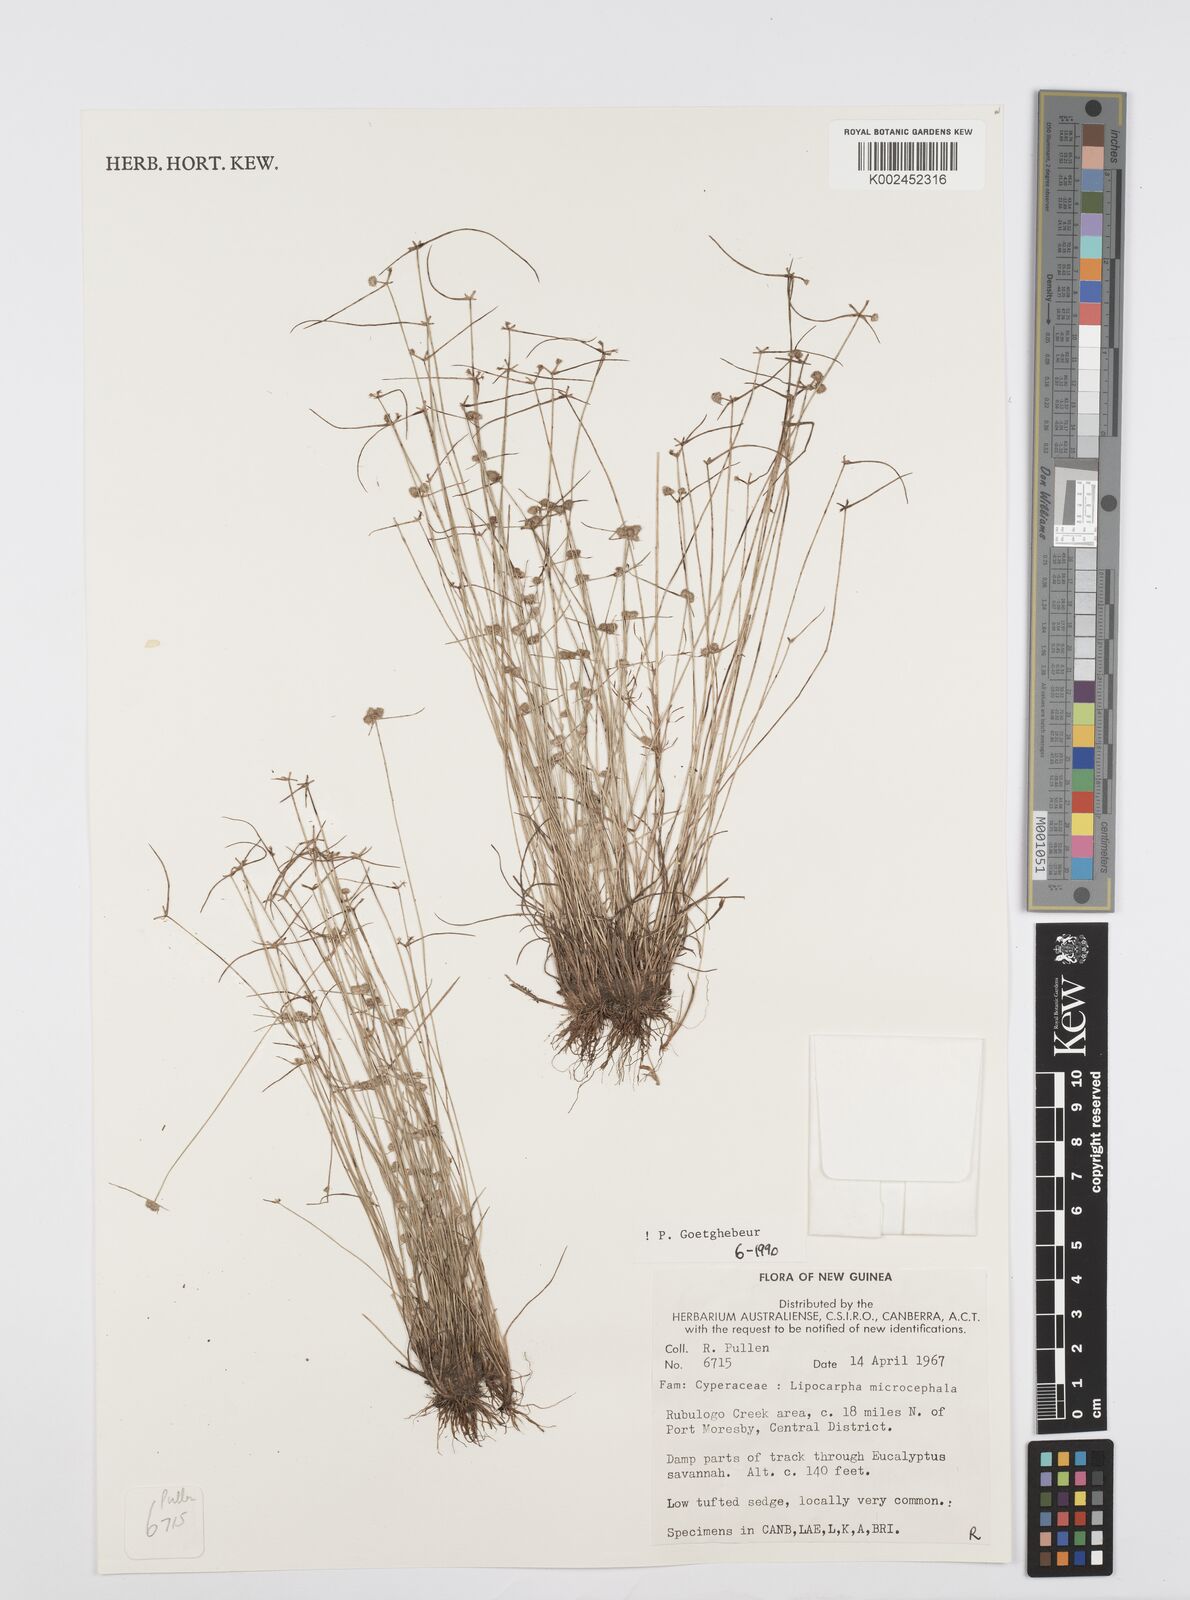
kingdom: Plantae
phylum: Tracheophyta
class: Liliopsida
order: Poales
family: Cyperaceae
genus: Cyperus
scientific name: Cyperus microcephalus
